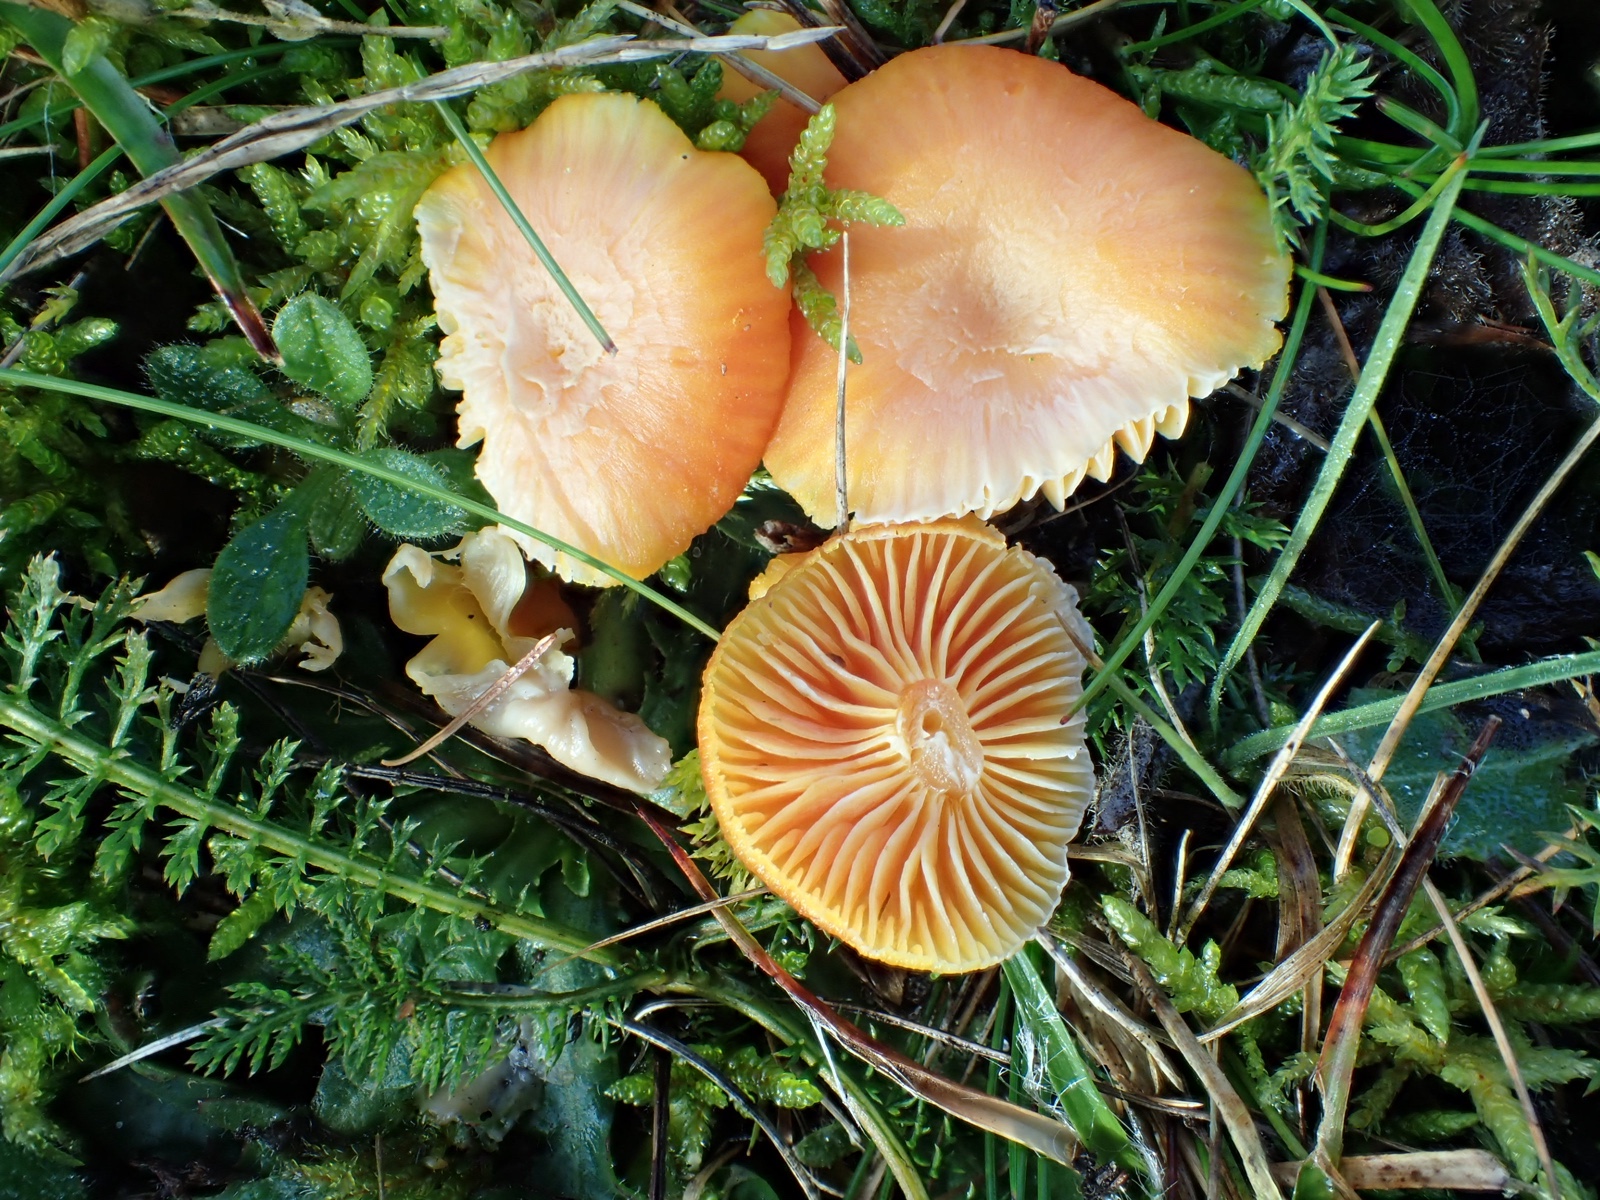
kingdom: Fungi
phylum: Basidiomycota
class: Agaricomycetes
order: Agaricales
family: Hygrophoraceae
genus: Hygrocybe
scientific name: Hygrocybe reidii
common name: honning-vokshat
